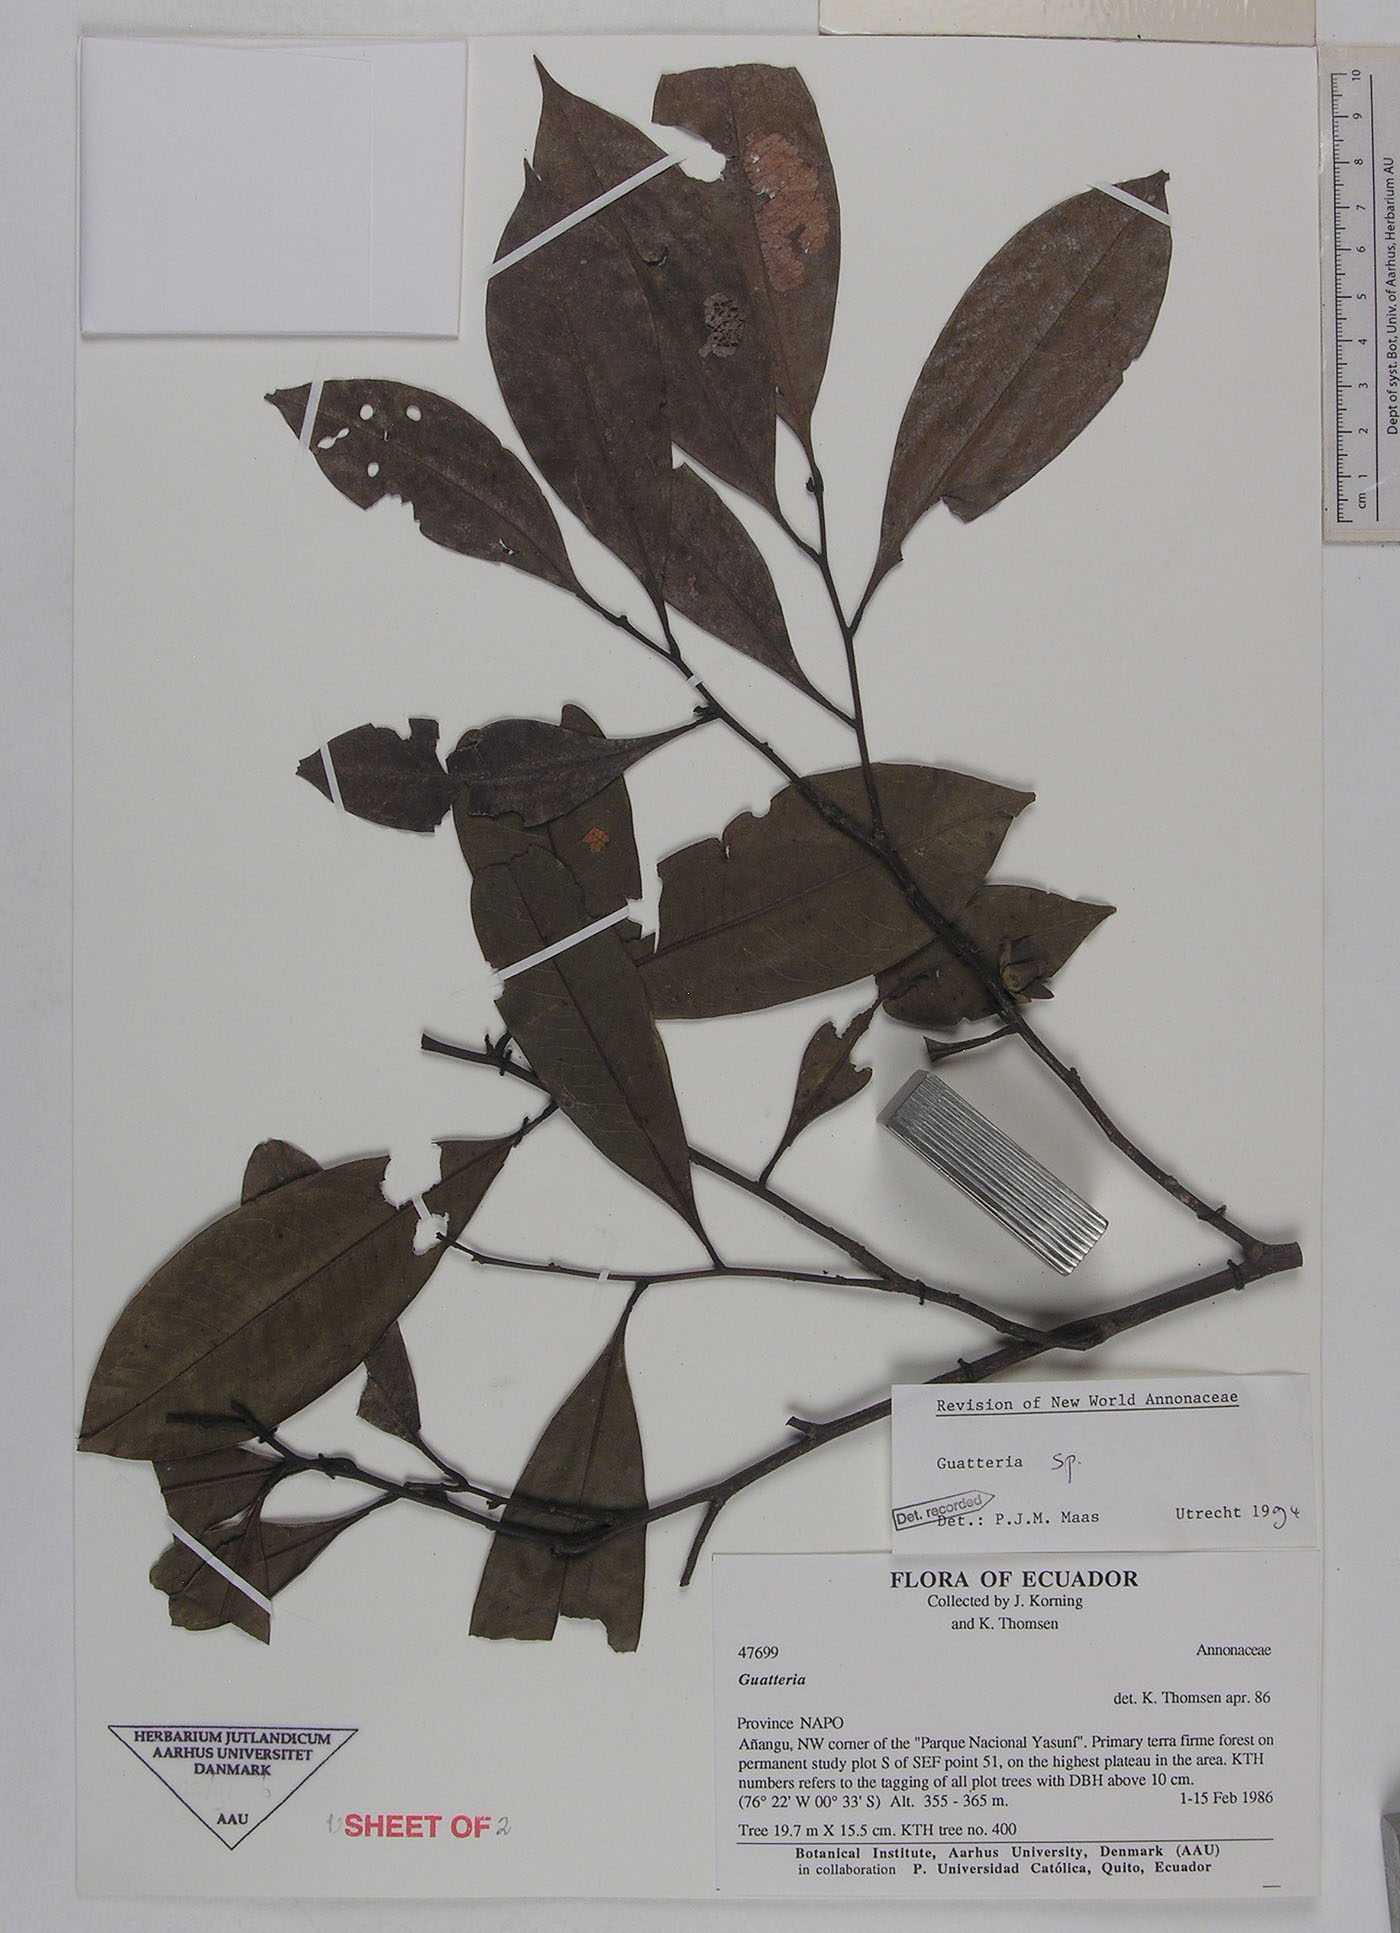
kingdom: Plantae
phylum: Tracheophyta
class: Magnoliopsida
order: Magnoliales
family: Annonaceae
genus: Guatteria
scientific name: Guatteria modesta
